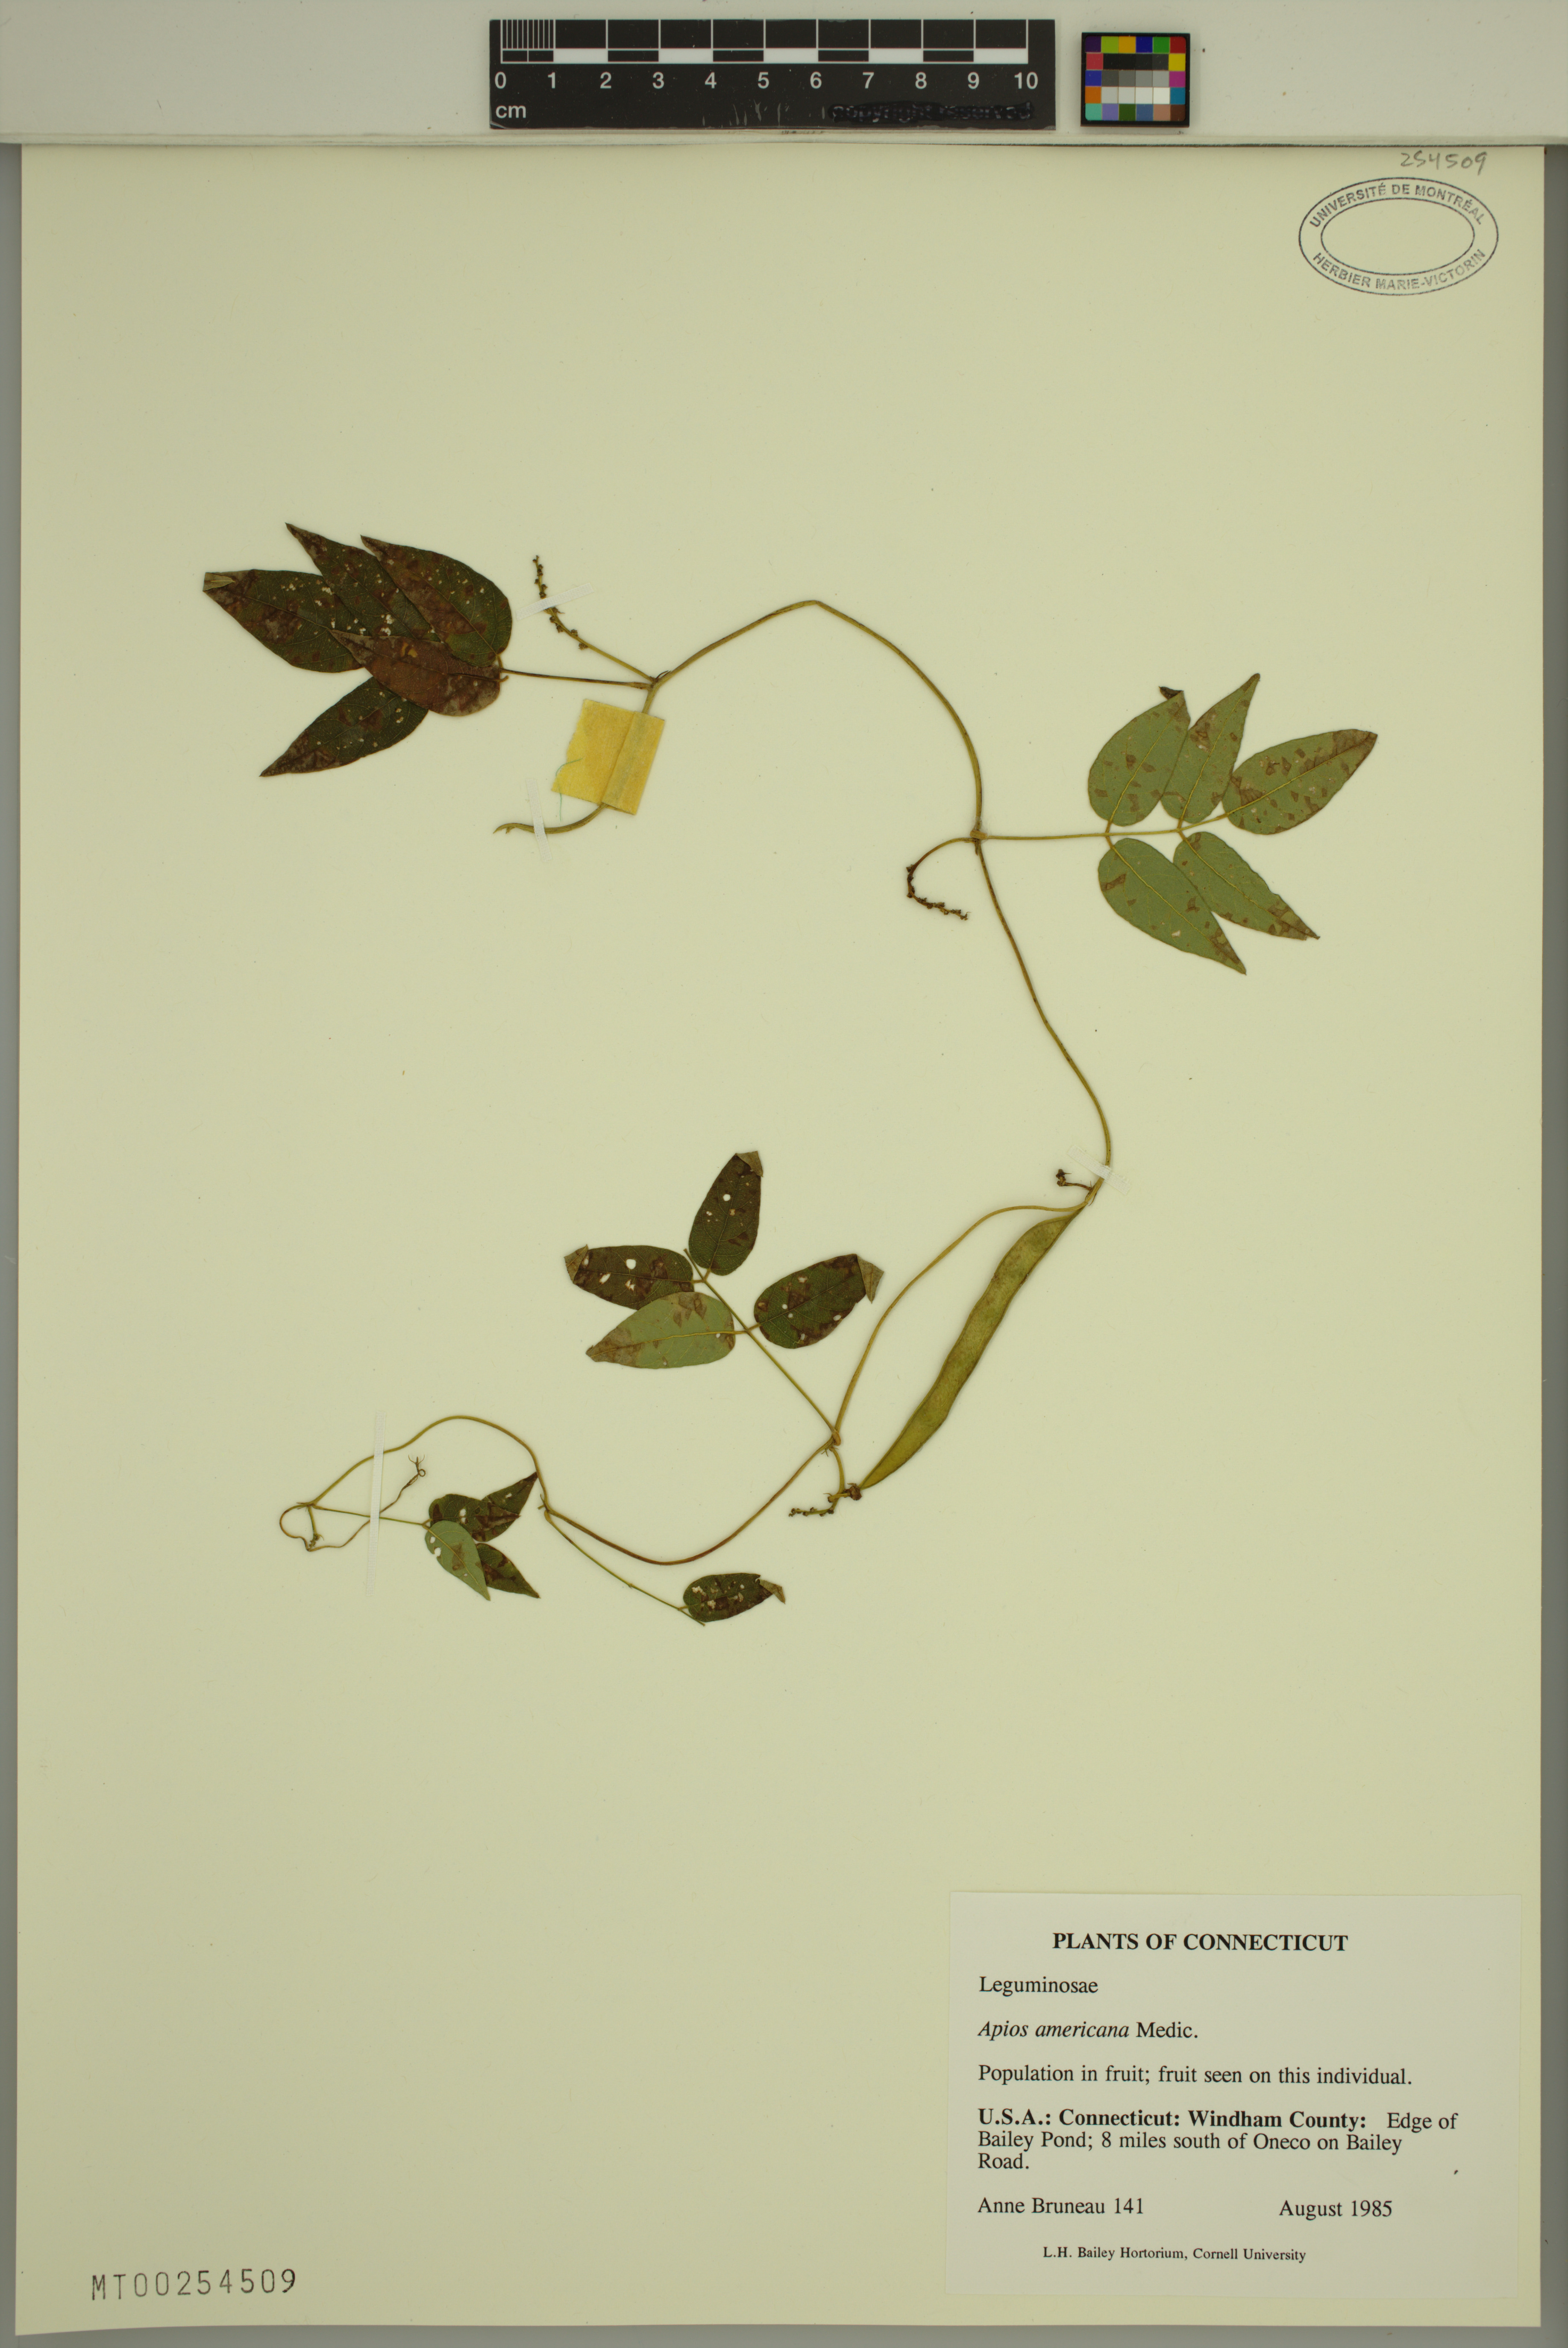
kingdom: Plantae
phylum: Tracheophyta
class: Magnoliopsida
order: Fabales
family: Fabaceae
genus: Apios
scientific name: Apios americana
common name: American potato-bean
